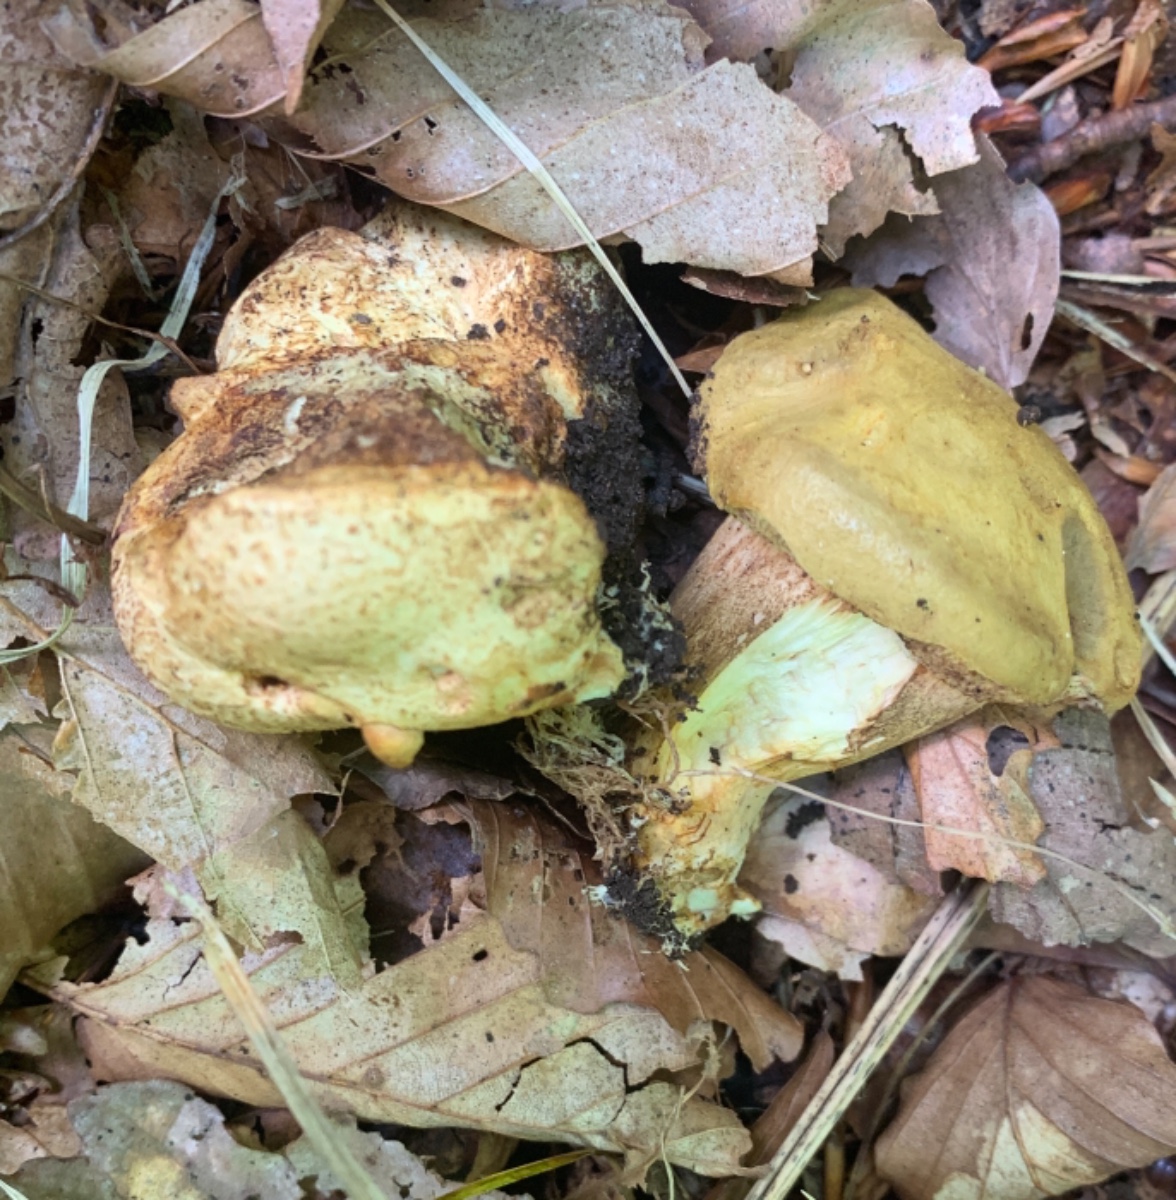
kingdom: Fungi
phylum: Basidiomycota
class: Agaricomycetes
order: Boletales
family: Boletaceae
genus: Pseudoboletus
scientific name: Pseudoboletus parasiticus
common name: snyltende rørhat
